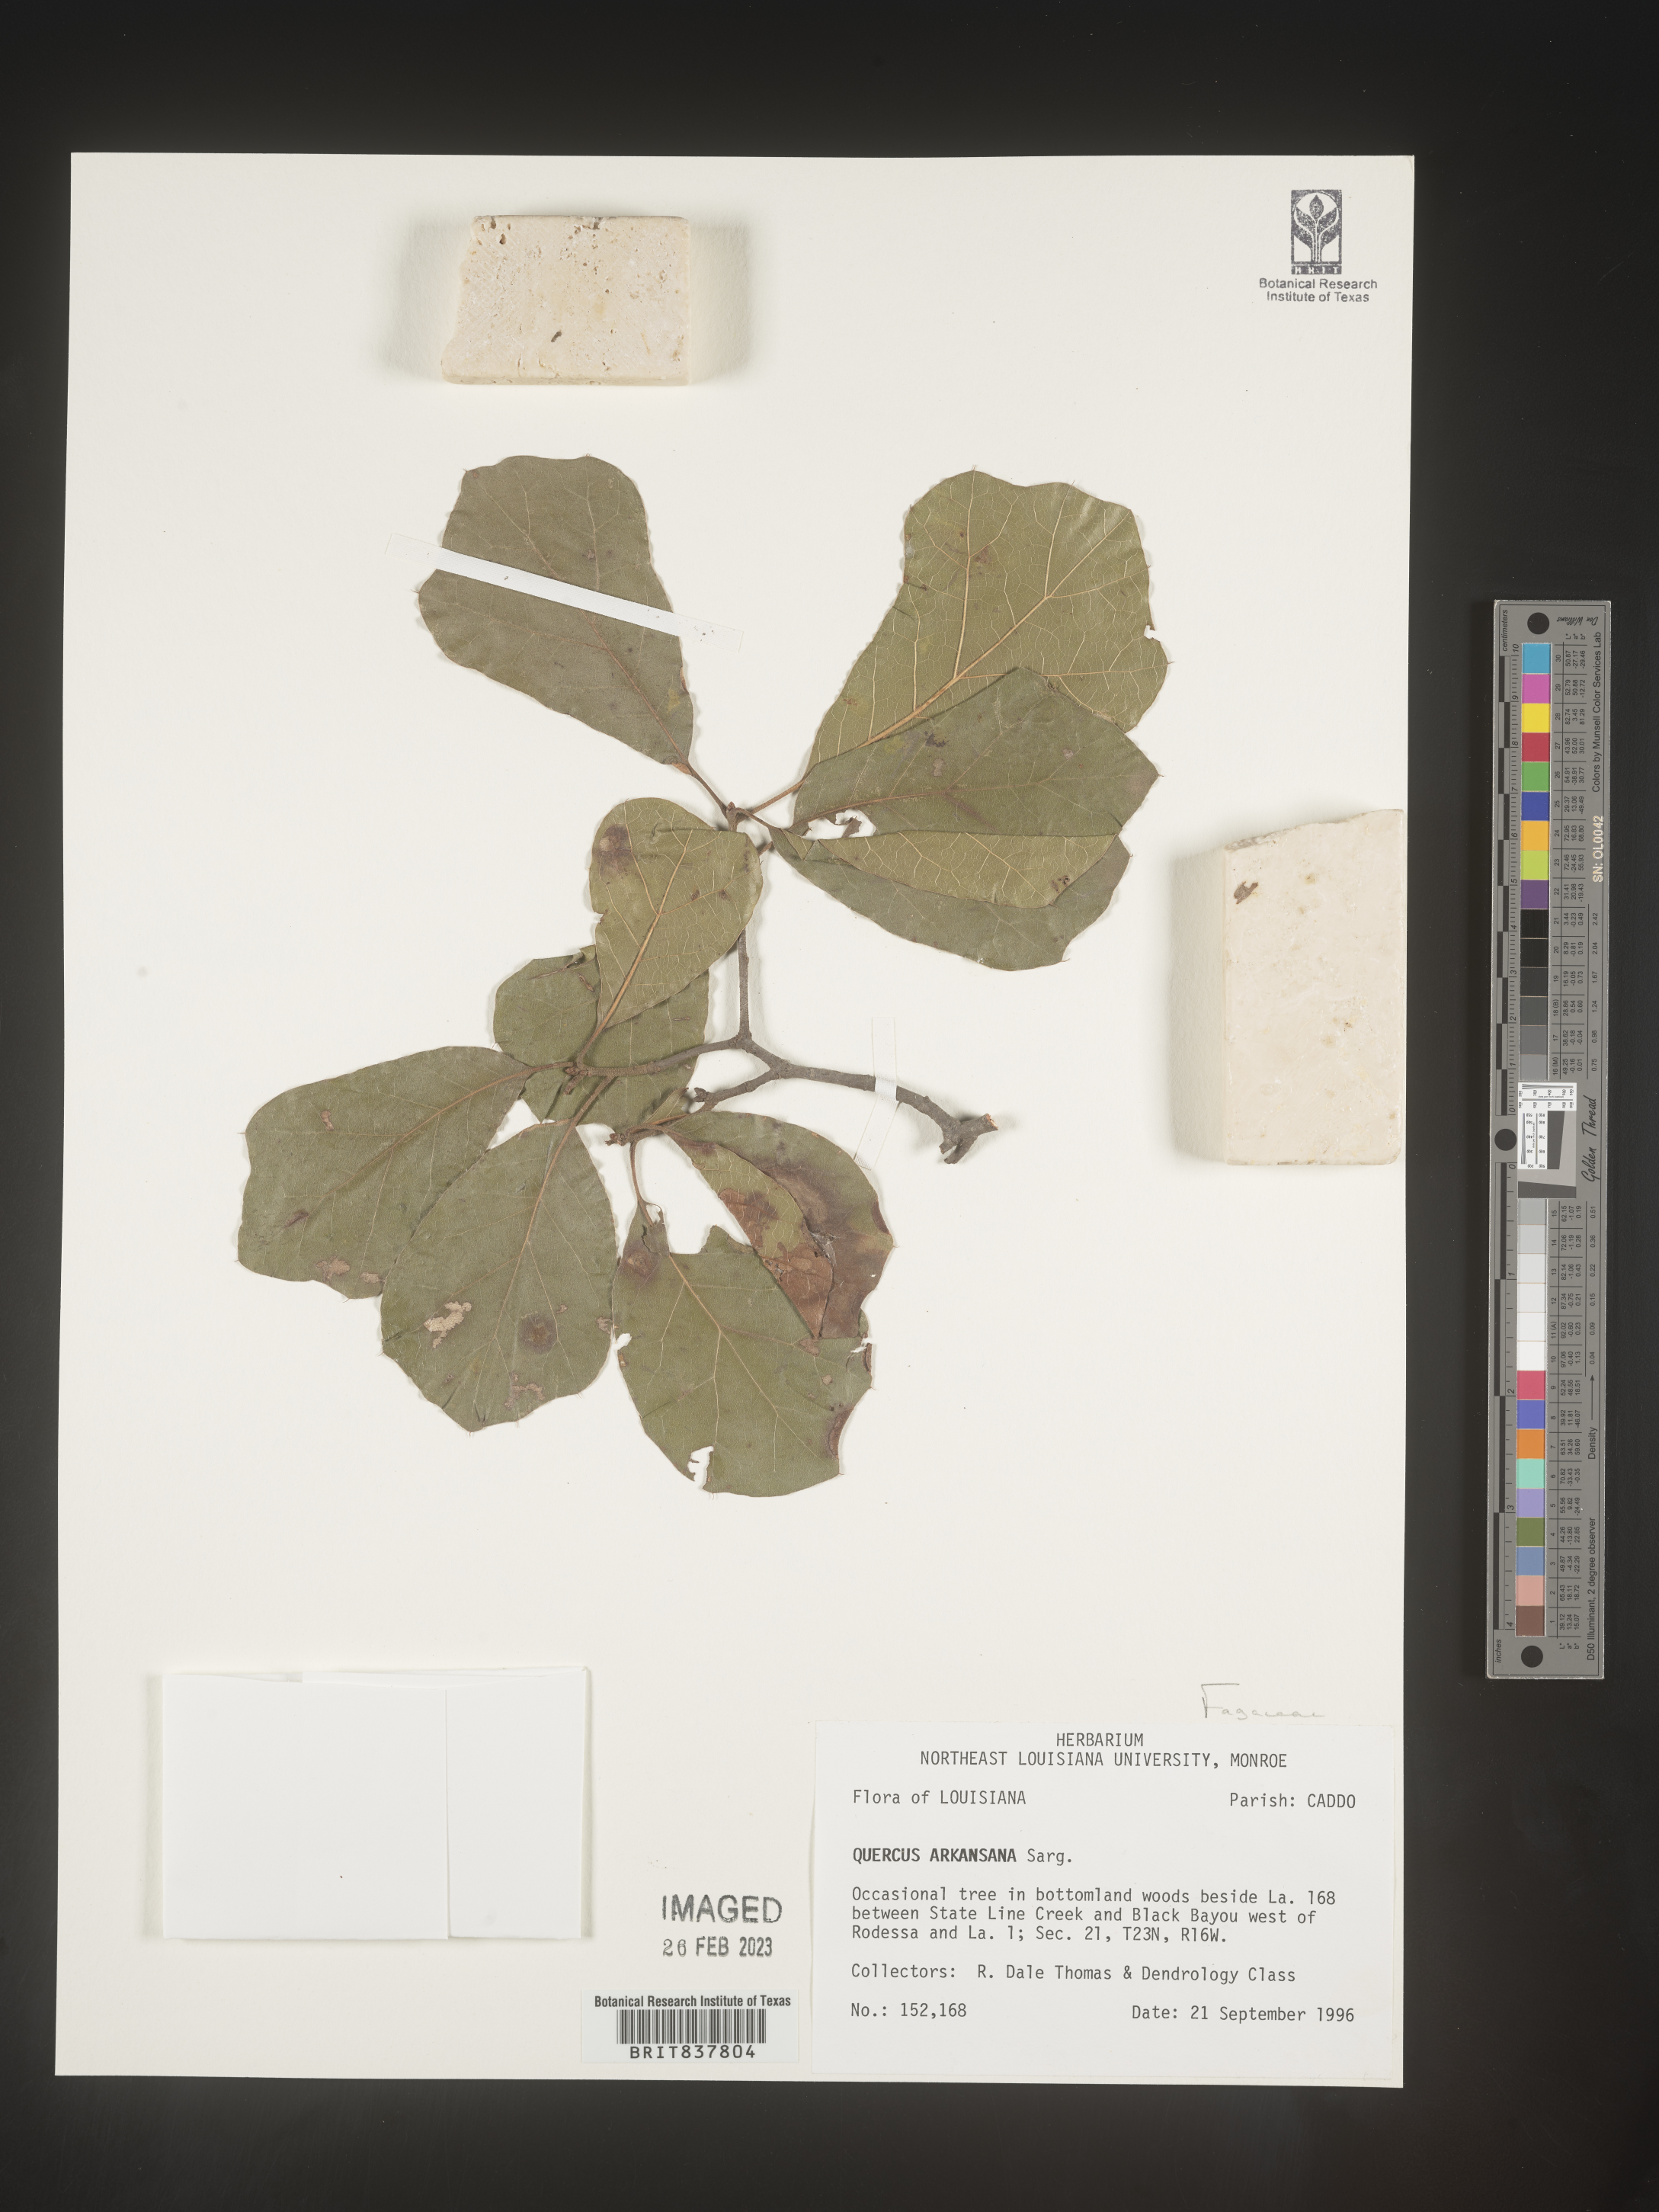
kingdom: Plantae
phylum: Tracheophyta
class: Magnoliopsida
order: Fagales
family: Fagaceae
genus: Quercus
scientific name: Quercus arkansana
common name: Arkansas oak
